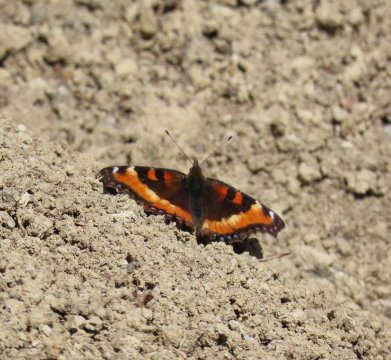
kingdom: Animalia
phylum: Arthropoda
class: Insecta
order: Lepidoptera
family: Nymphalidae
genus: Aglais
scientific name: Aglais milberti
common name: Milbert's Tortoiseshell
